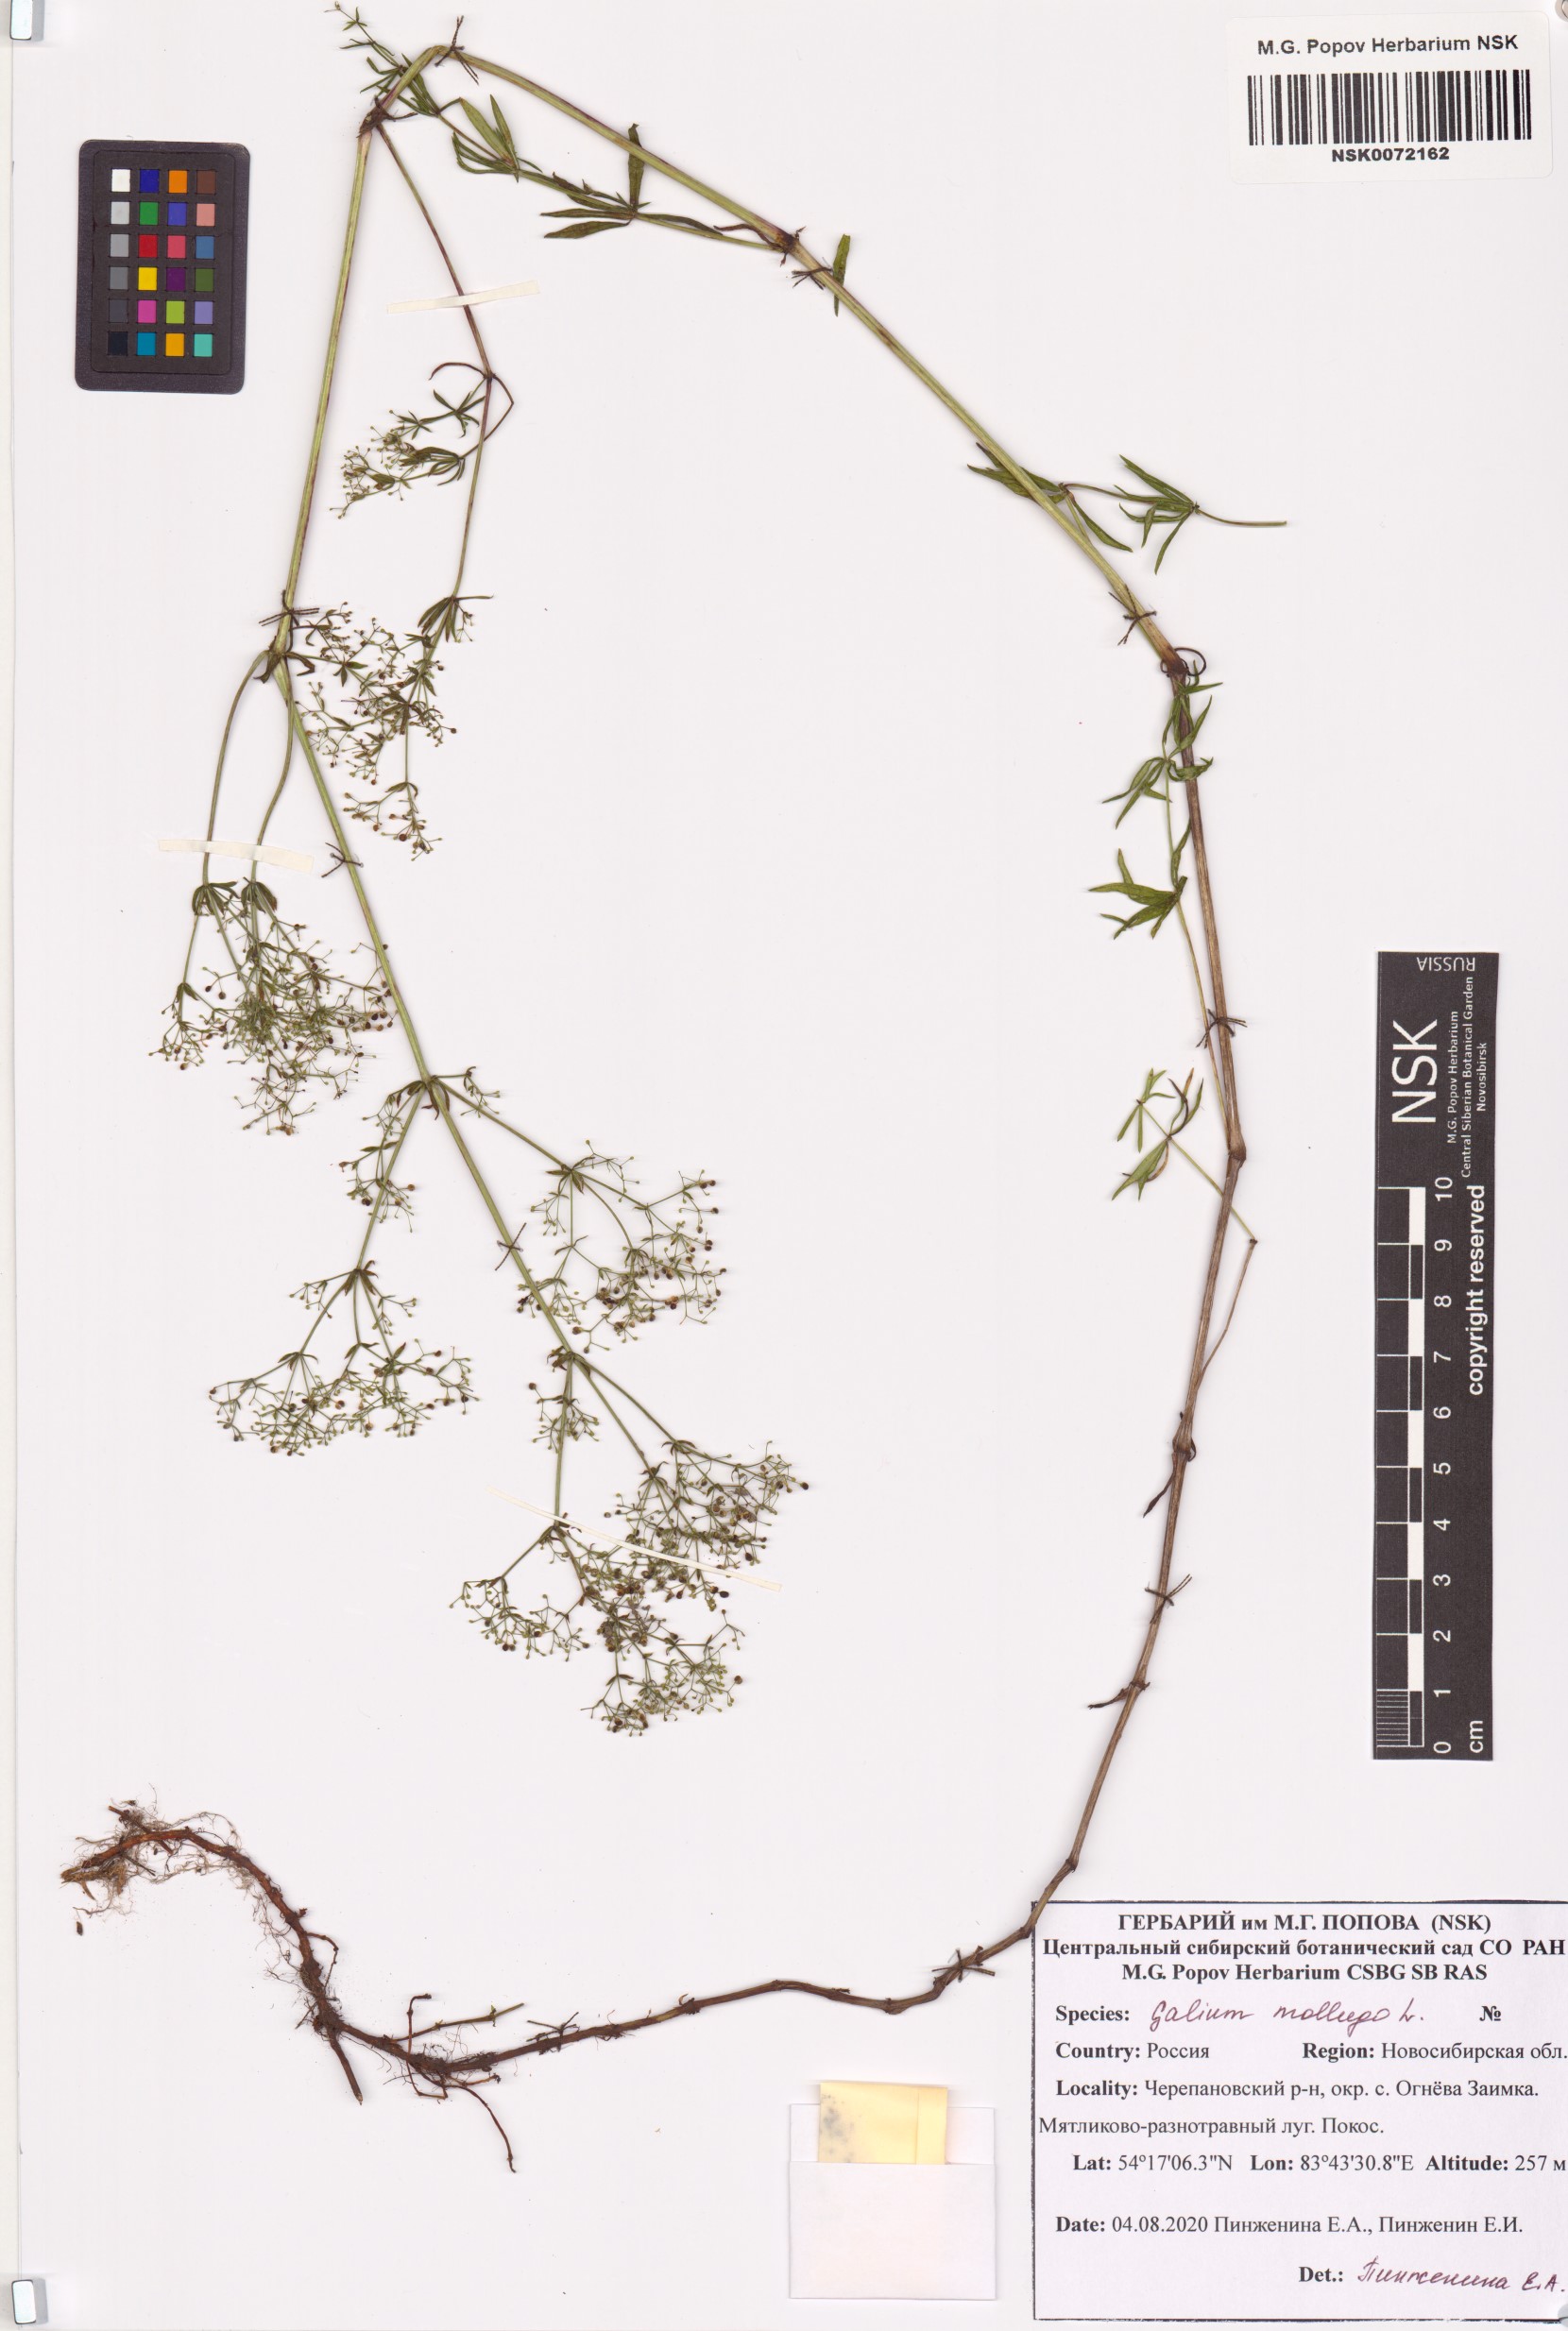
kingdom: Plantae
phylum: Tracheophyta
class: Magnoliopsida
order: Gentianales
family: Rubiaceae
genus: Galium
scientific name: Galium mollugo
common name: Hedge bedstraw
